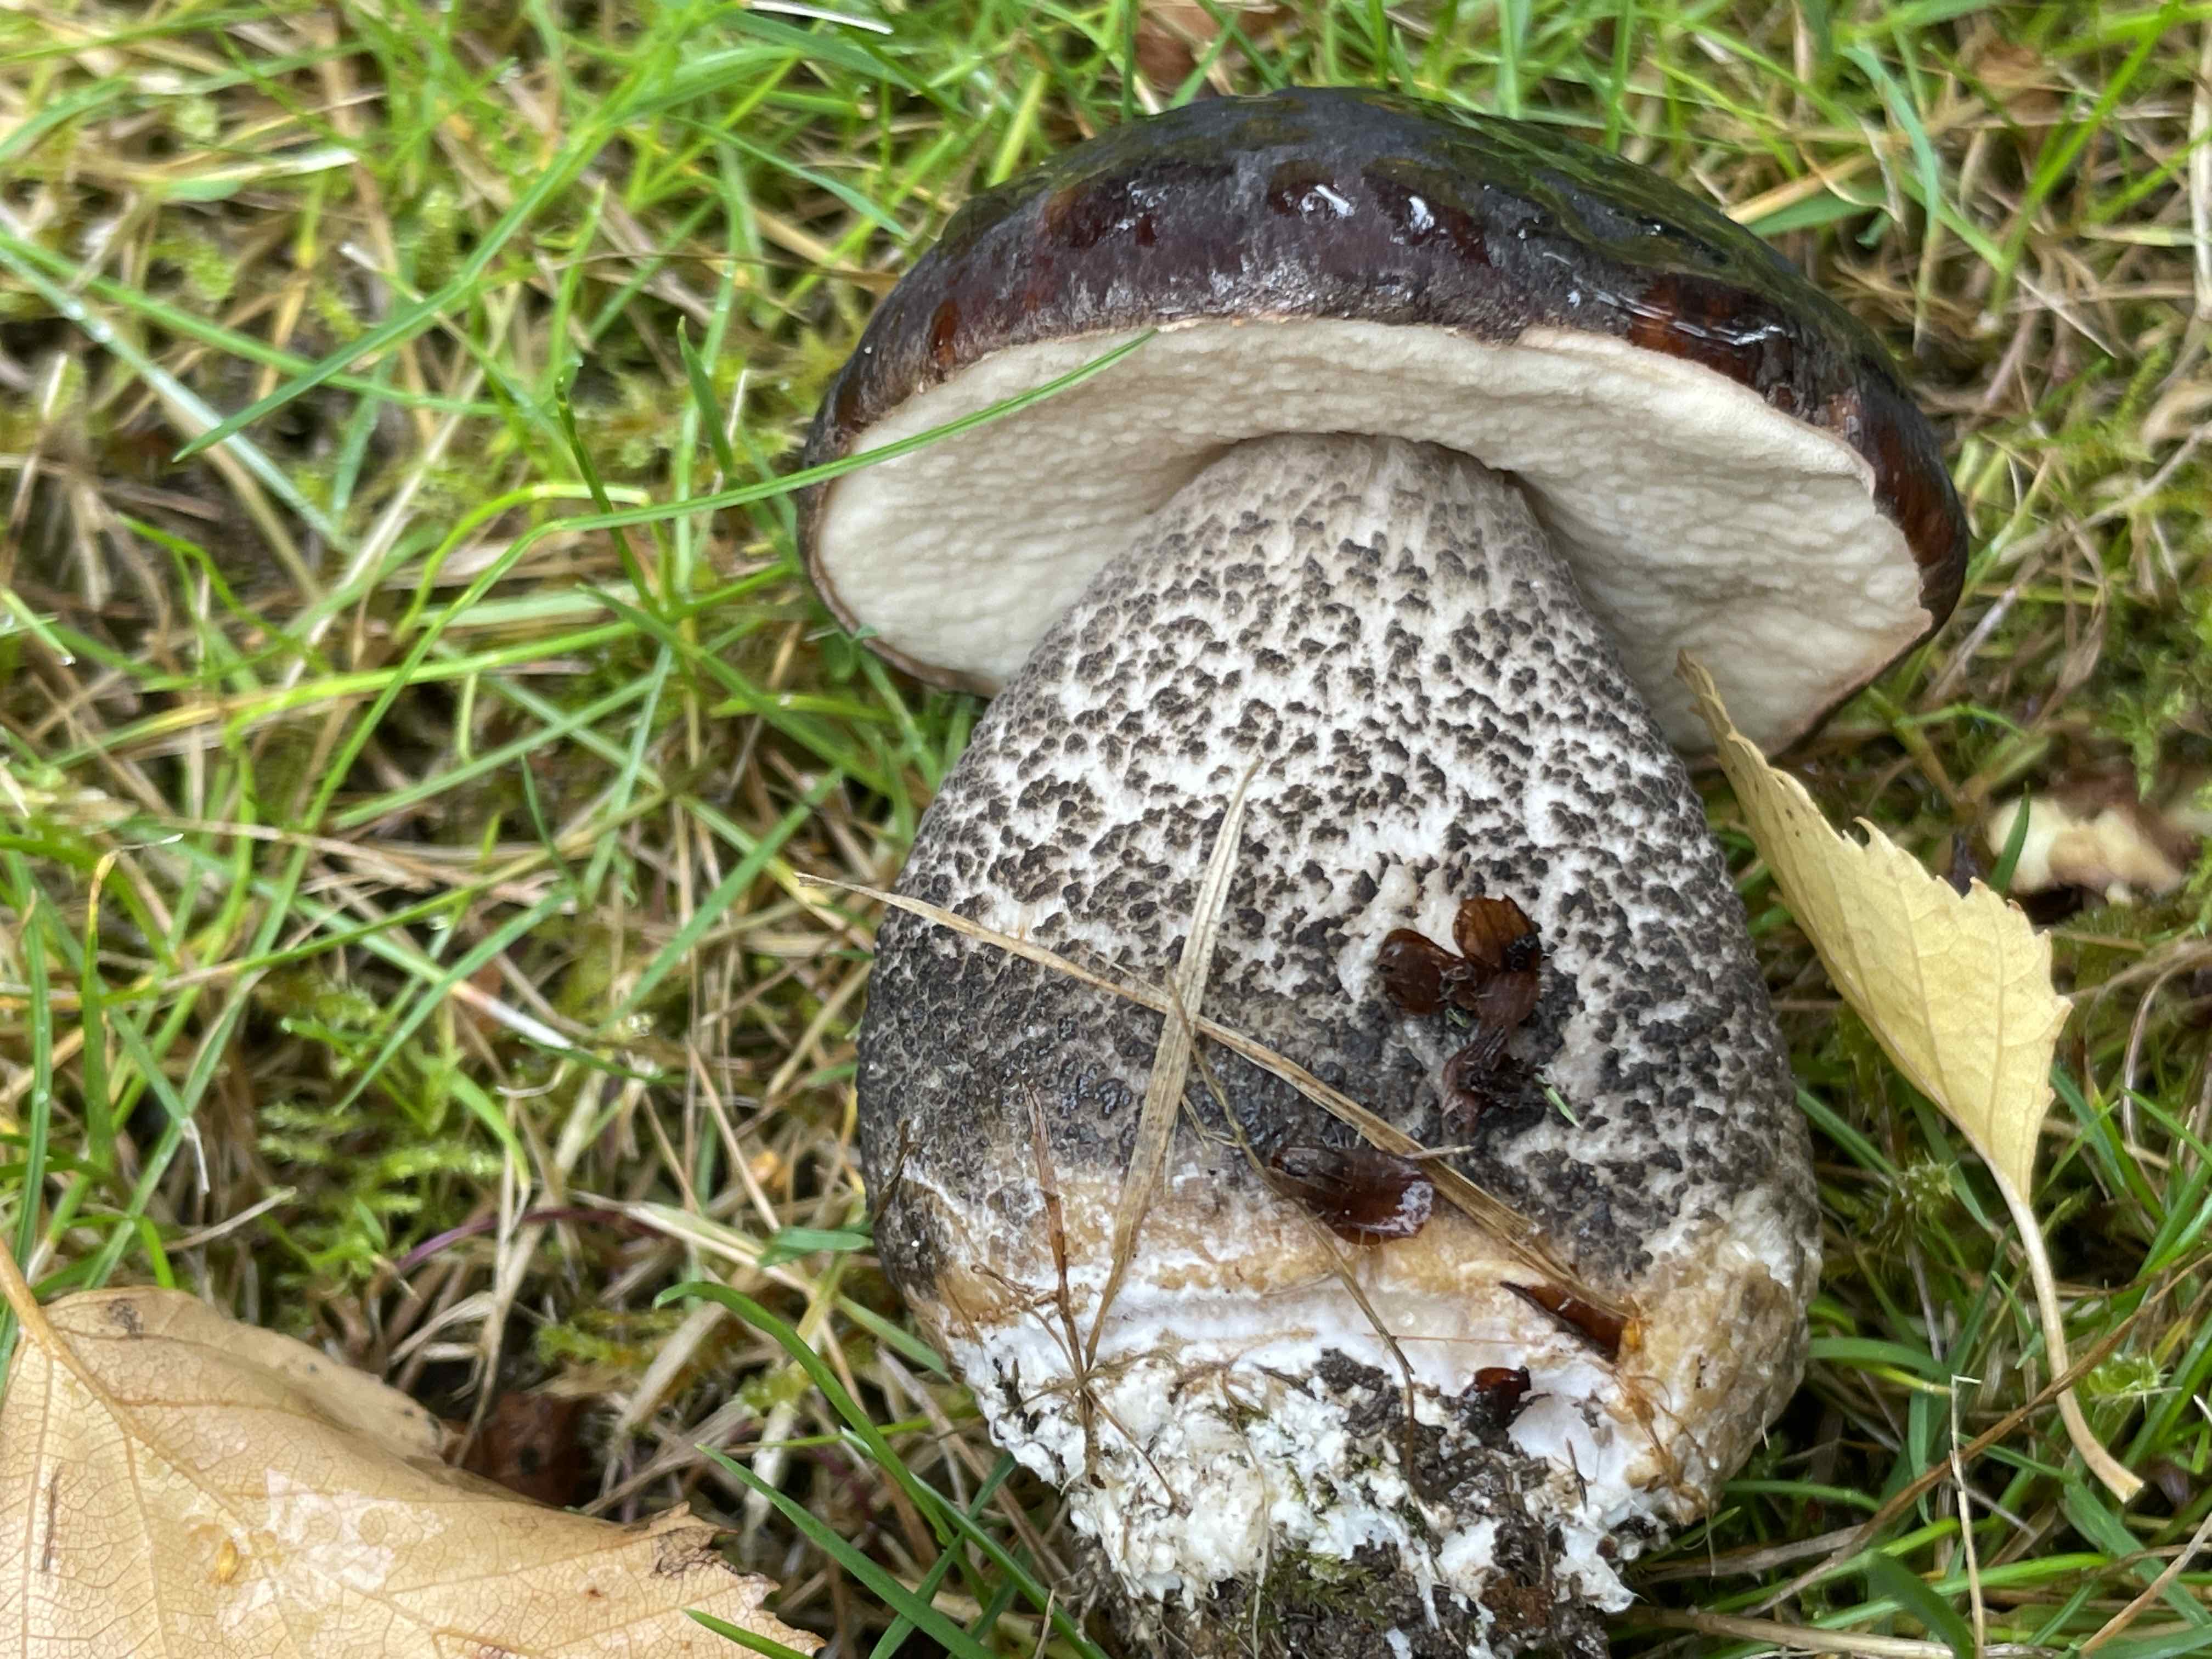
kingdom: Fungi
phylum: Basidiomycota
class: Agaricomycetes
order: Boletales
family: Boletaceae
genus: Leccinum
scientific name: Leccinum melaneum
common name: mørk skælrørhat
